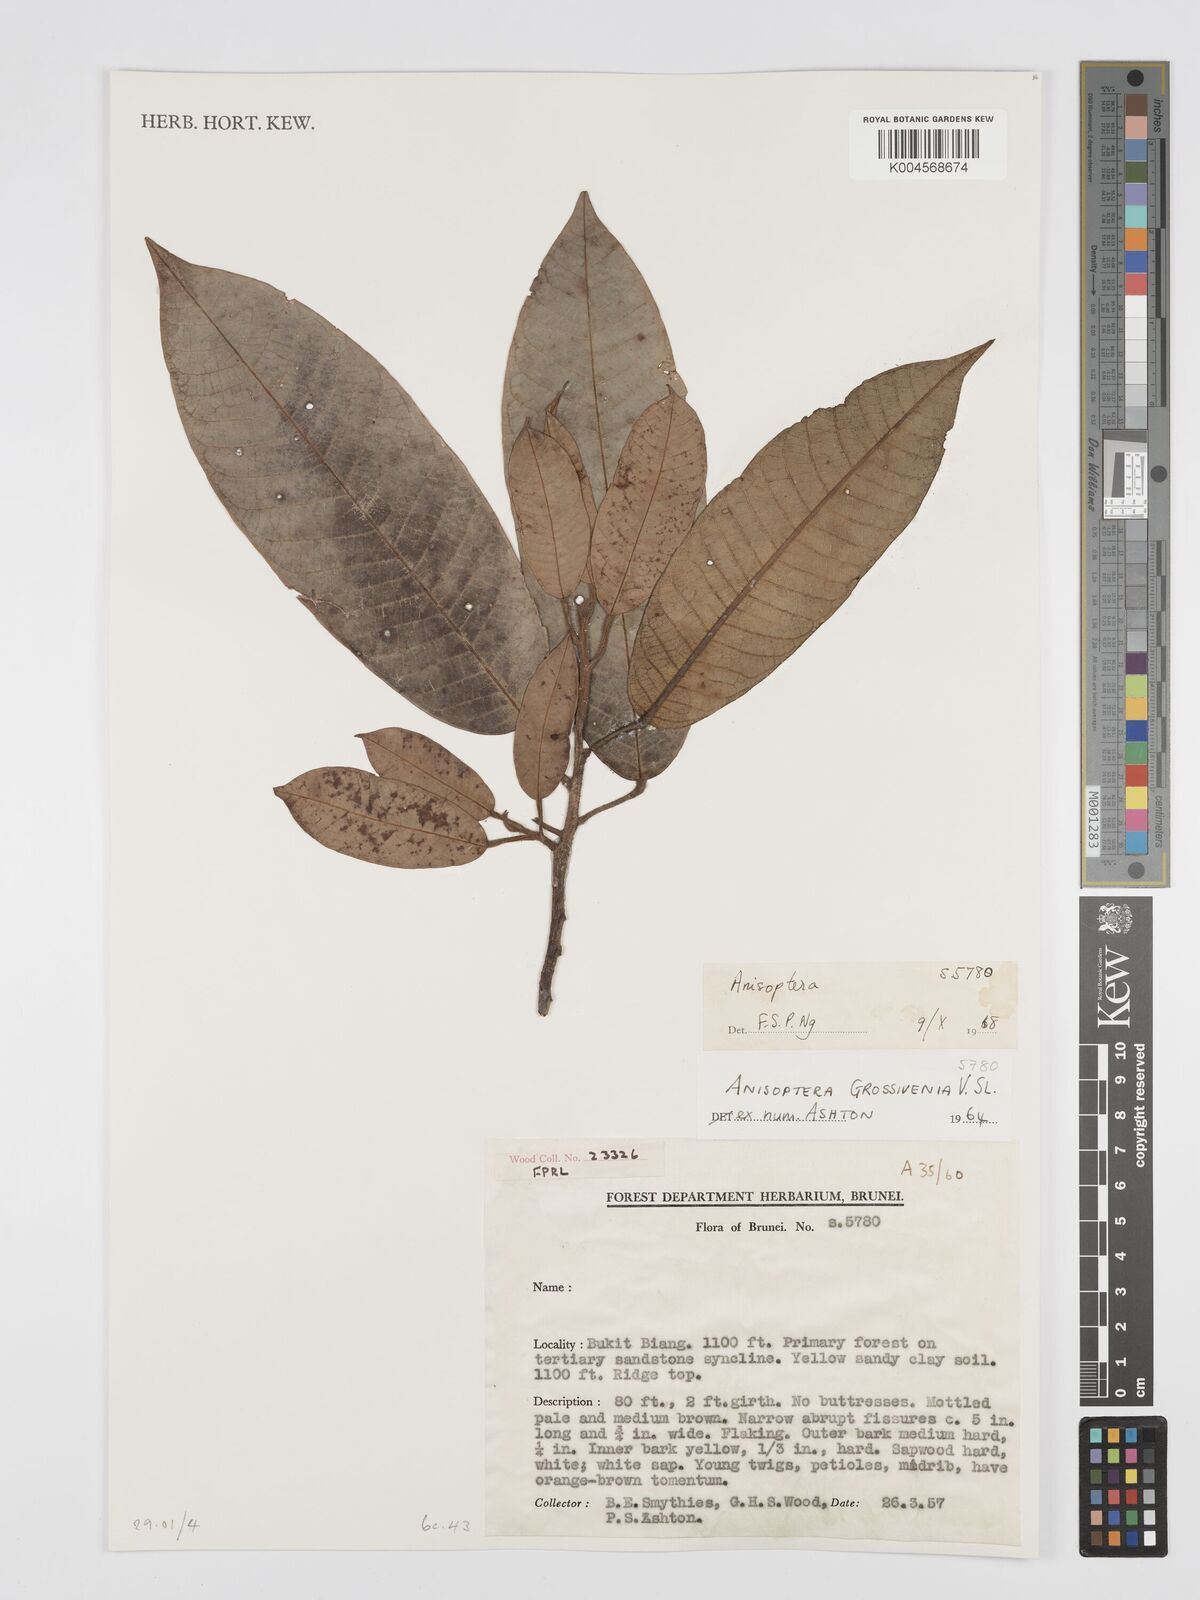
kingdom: Plantae
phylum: Tracheophyta
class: Magnoliopsida
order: Malvales
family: Dipterocarpaceae
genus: Anisoptera
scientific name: Anisoptera grossivenia
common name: Krabak
